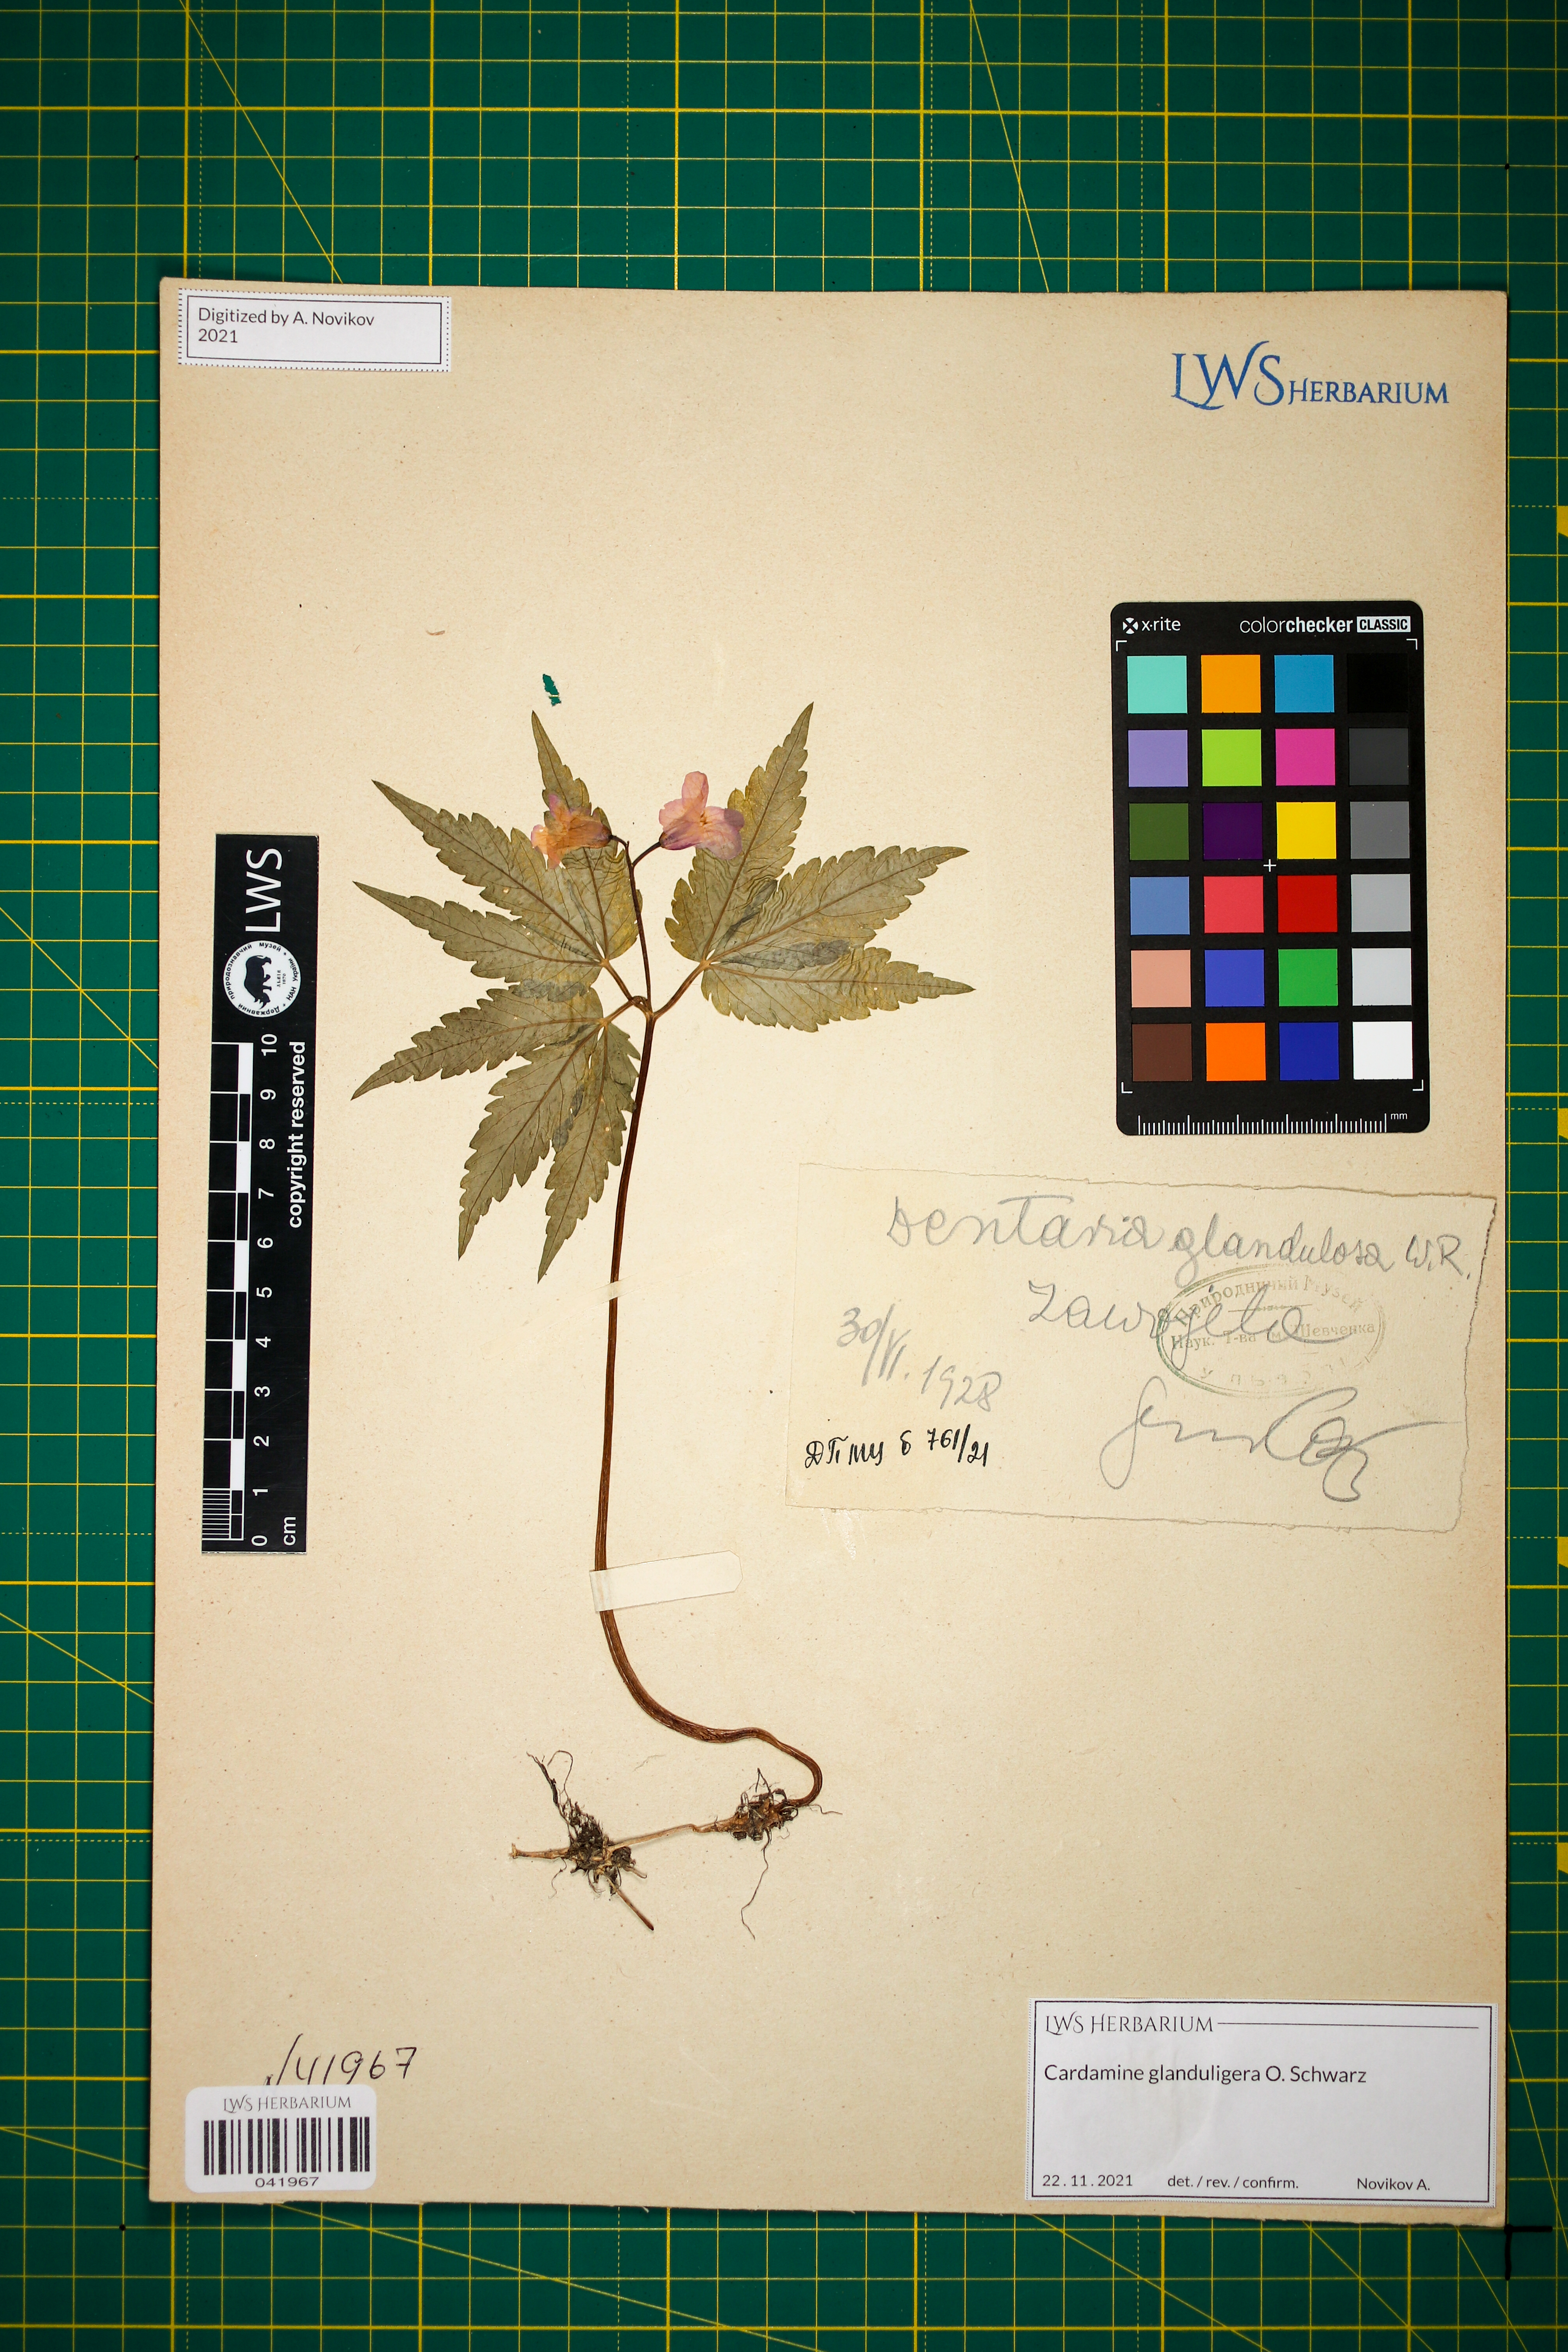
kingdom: Plantae
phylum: Tracheophyta
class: Magnoliopsida
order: Brassicales
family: Brassicaceae
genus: Cardamine
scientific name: Cardamine glanduligera
